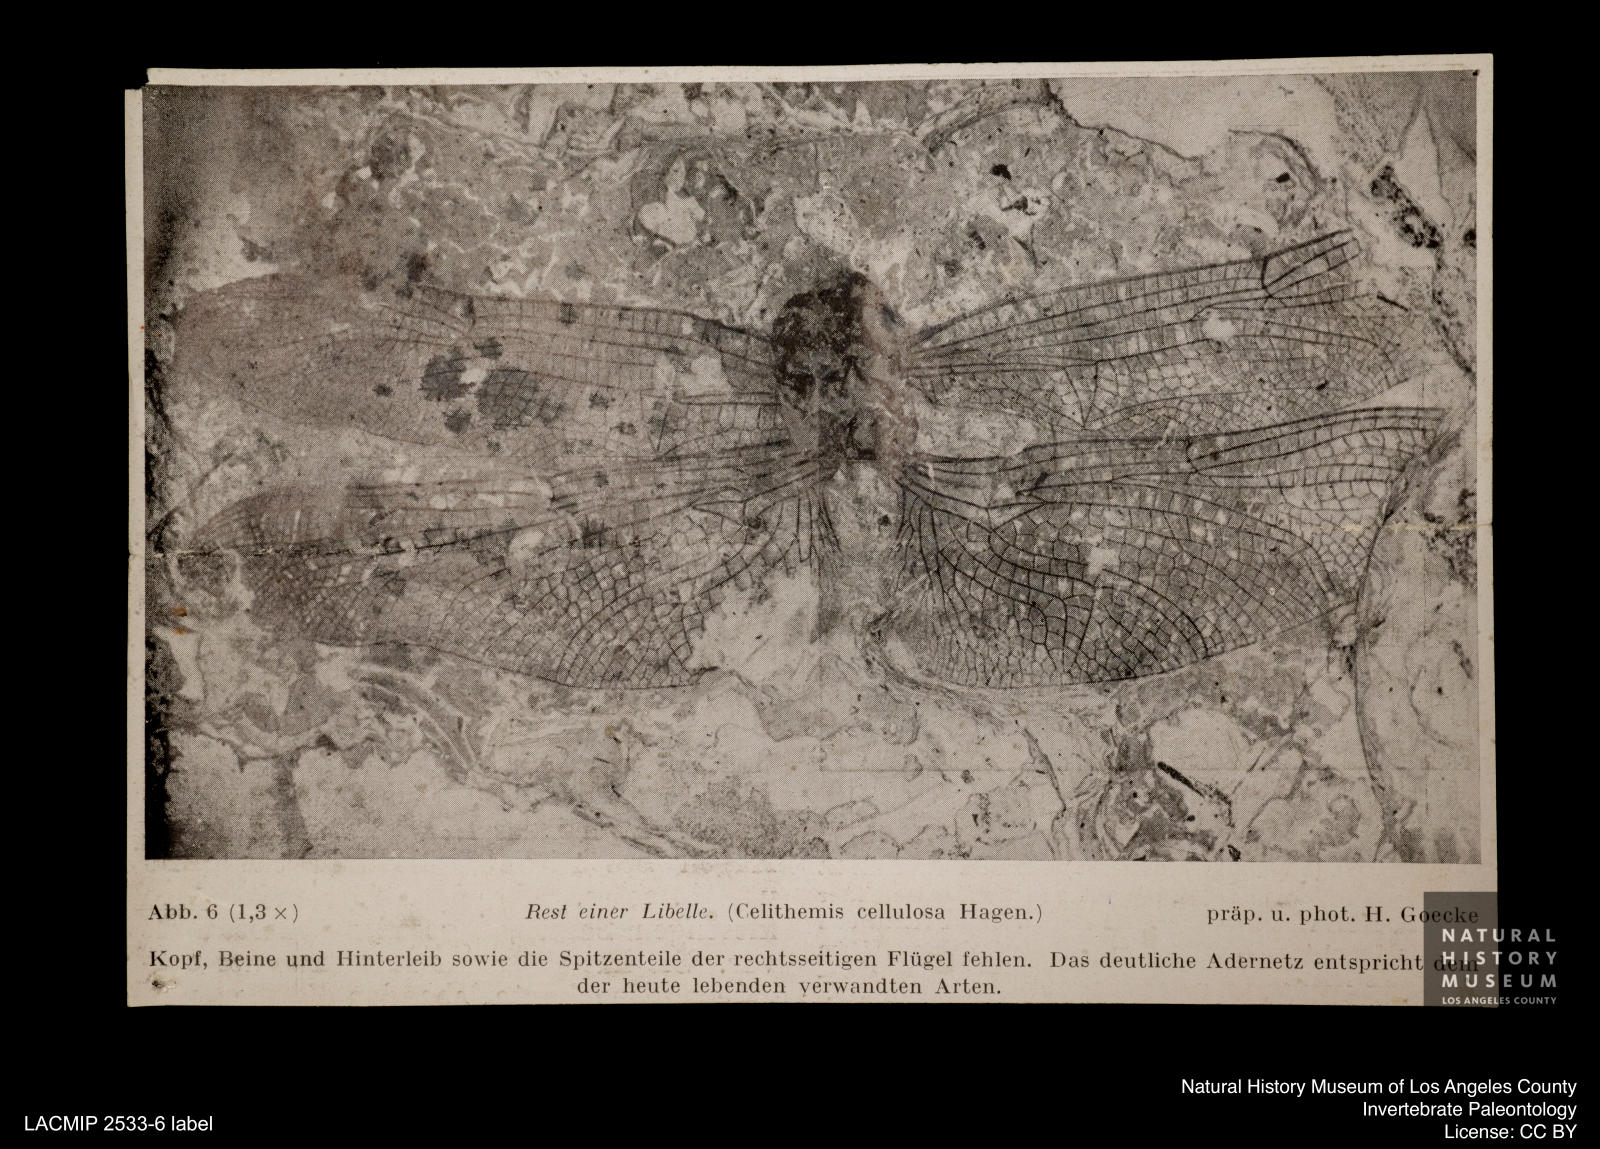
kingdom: Animalia
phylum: Arthropoda
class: Insecta
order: Odonata
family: Libellulidae
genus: Palaeotramea
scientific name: Palaeotramea Libellula cellulosa
